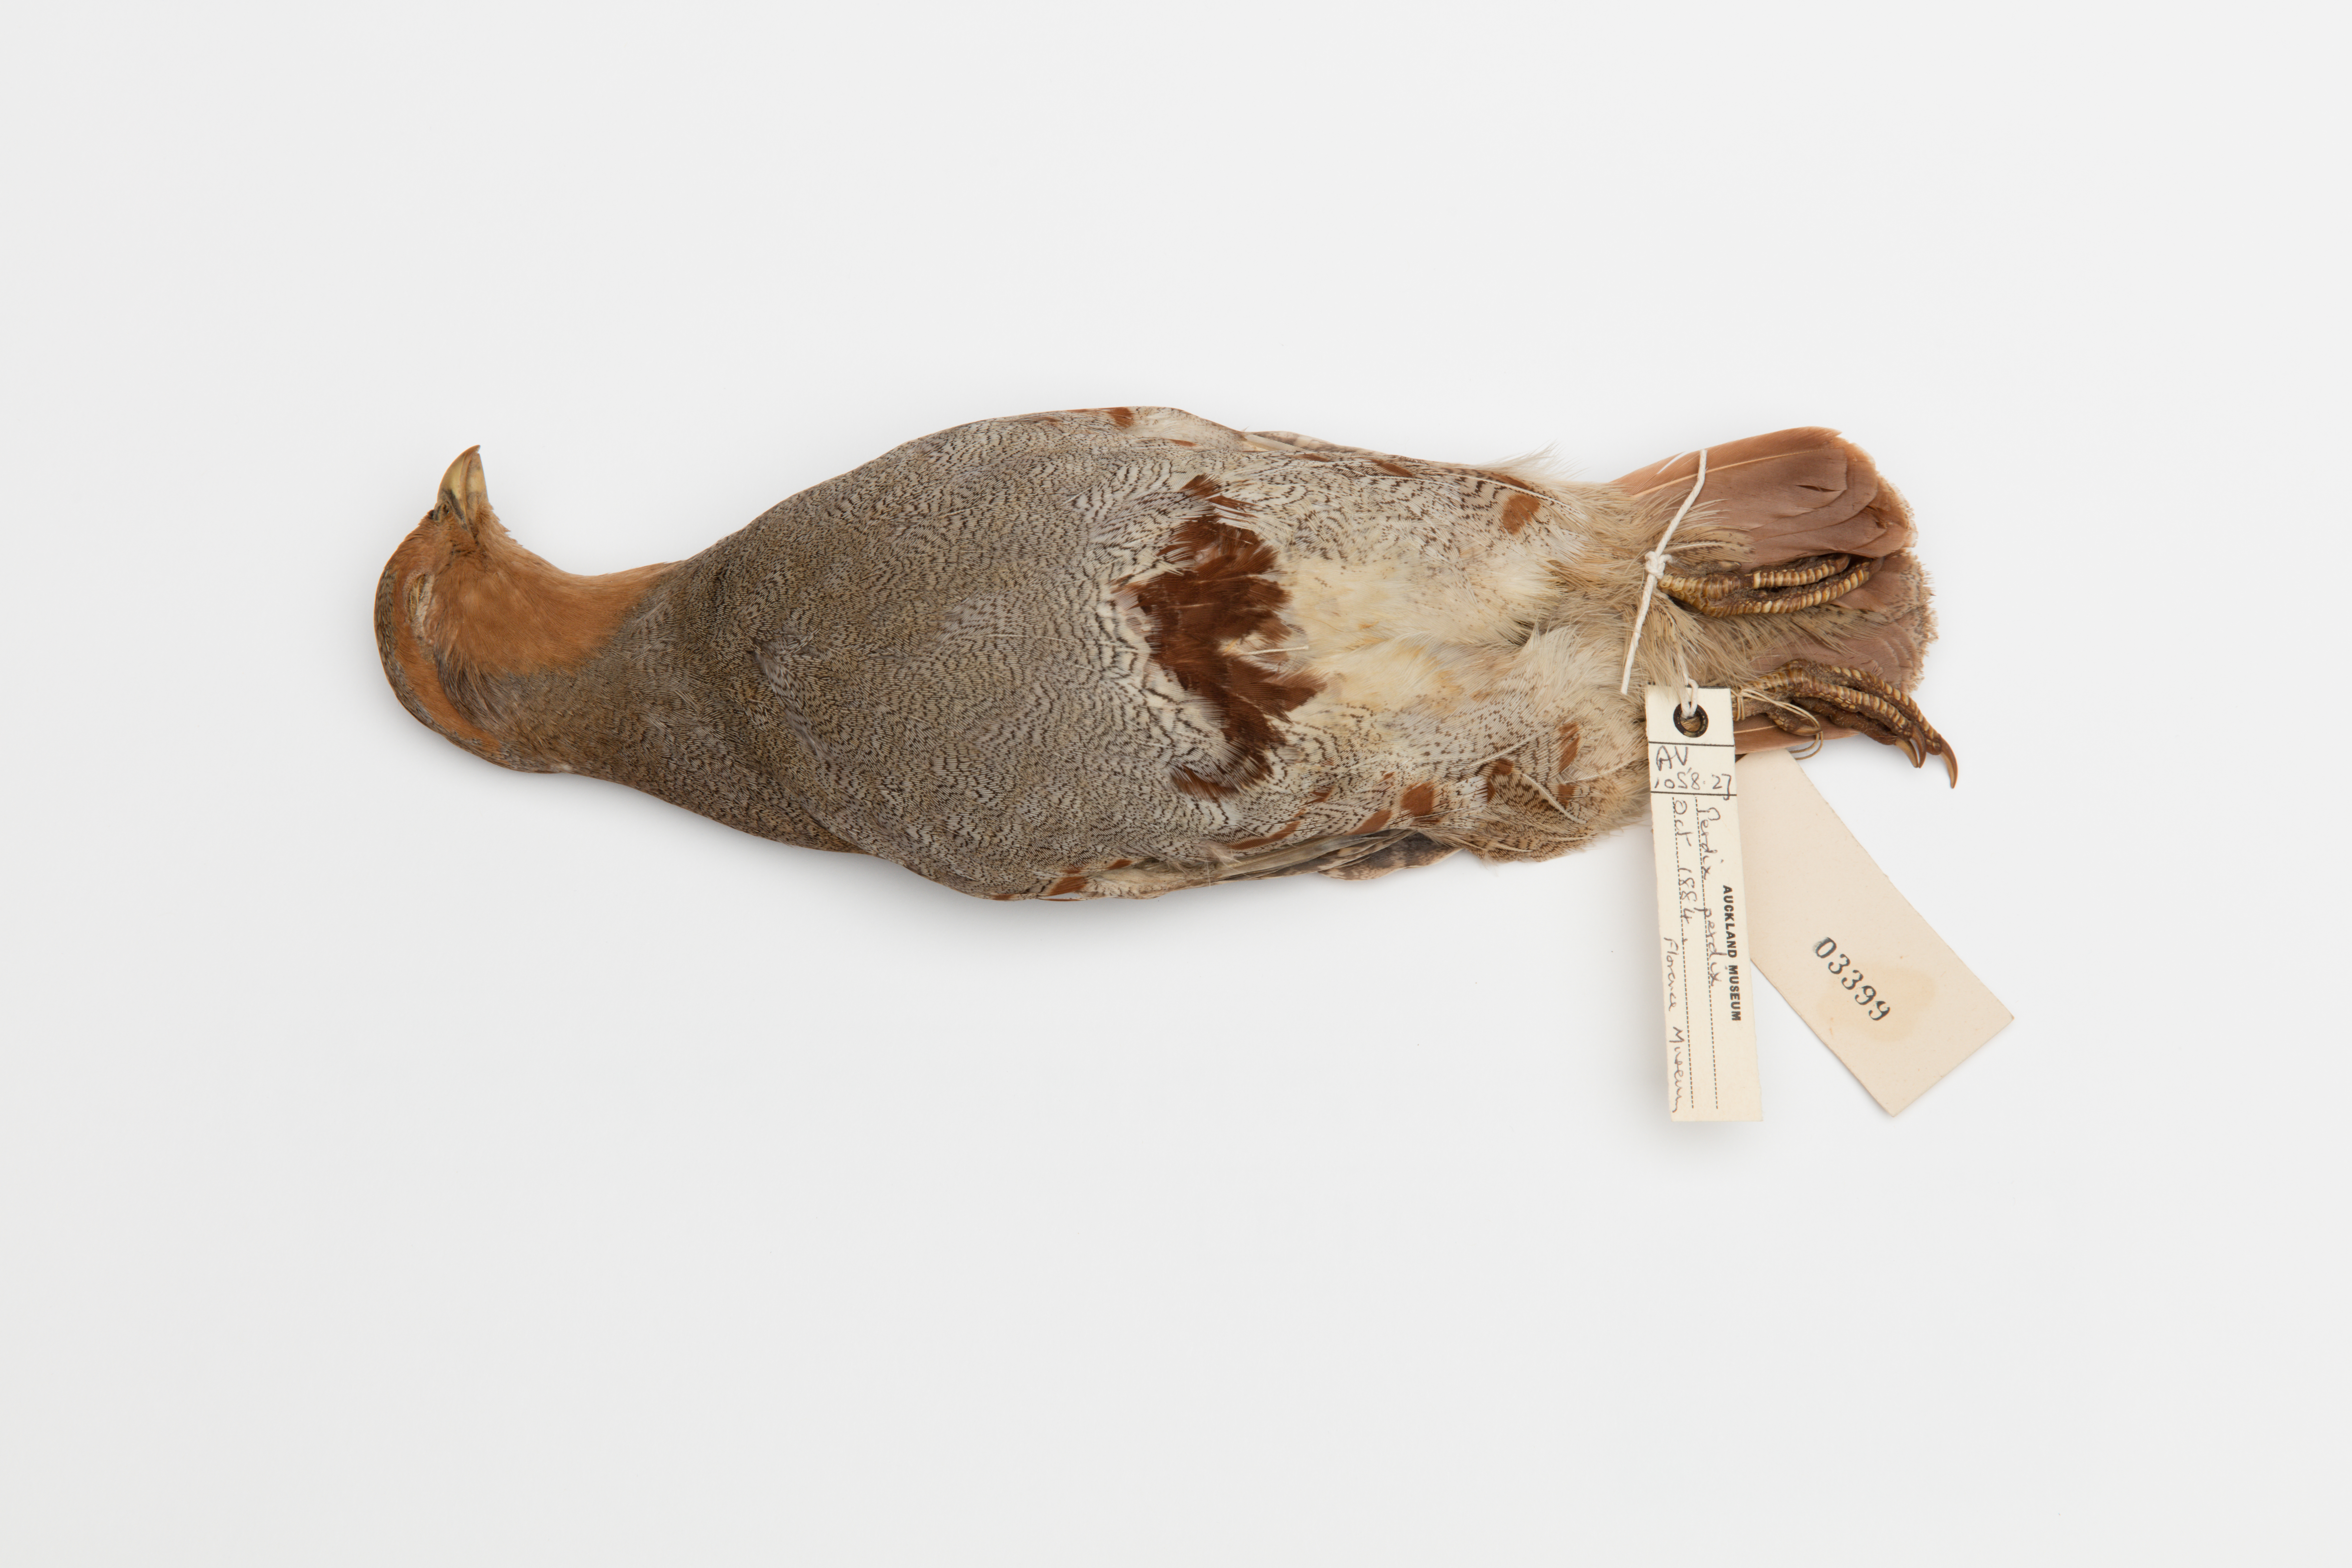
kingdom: Animalia
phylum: Chordata
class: Aves
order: Galliformes
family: Phasianidae
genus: Perdix
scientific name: Perdix perdix
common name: Grey partridge
